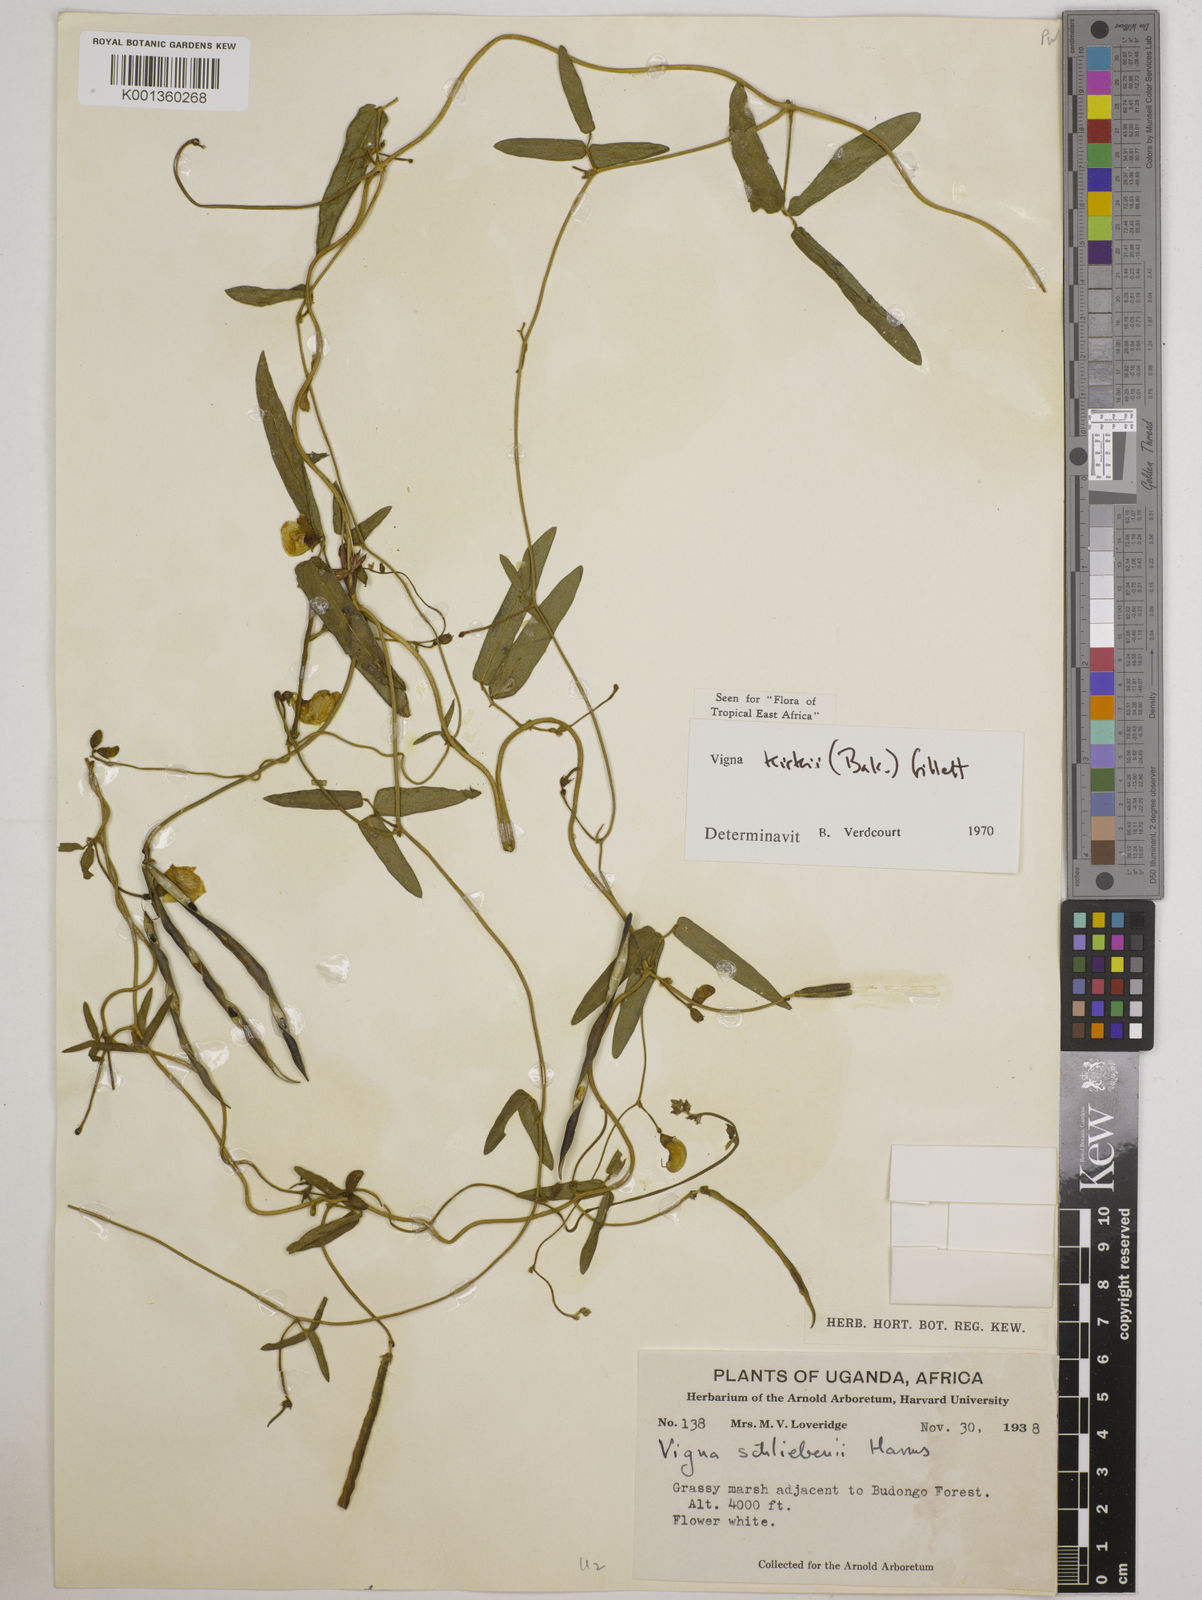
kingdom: Plantae
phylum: Tracheophyta
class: Magnoliopsida
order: Fabales
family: Fabaceae
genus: Vigna
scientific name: Vigna kirkii
